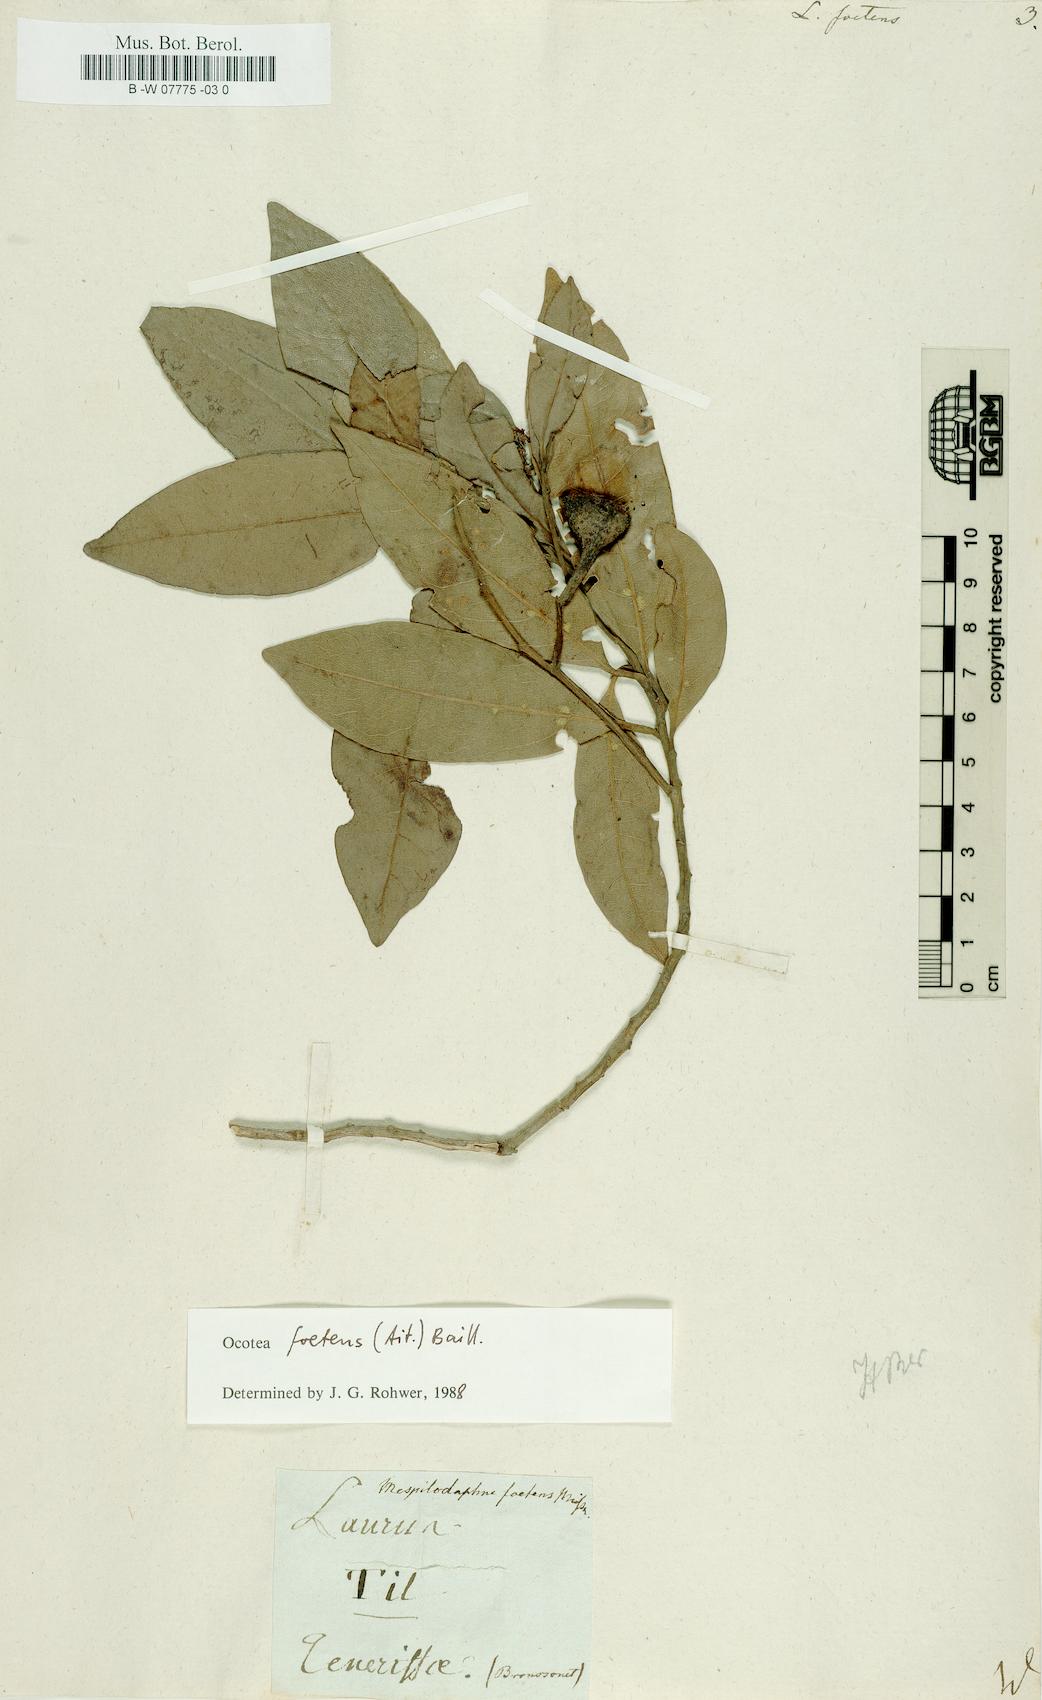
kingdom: Plantae
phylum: Tracheophyta
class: Magnoliopsida
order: Laurales
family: Lauraceae
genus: Persea
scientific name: Persea borbonia
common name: Redbay
